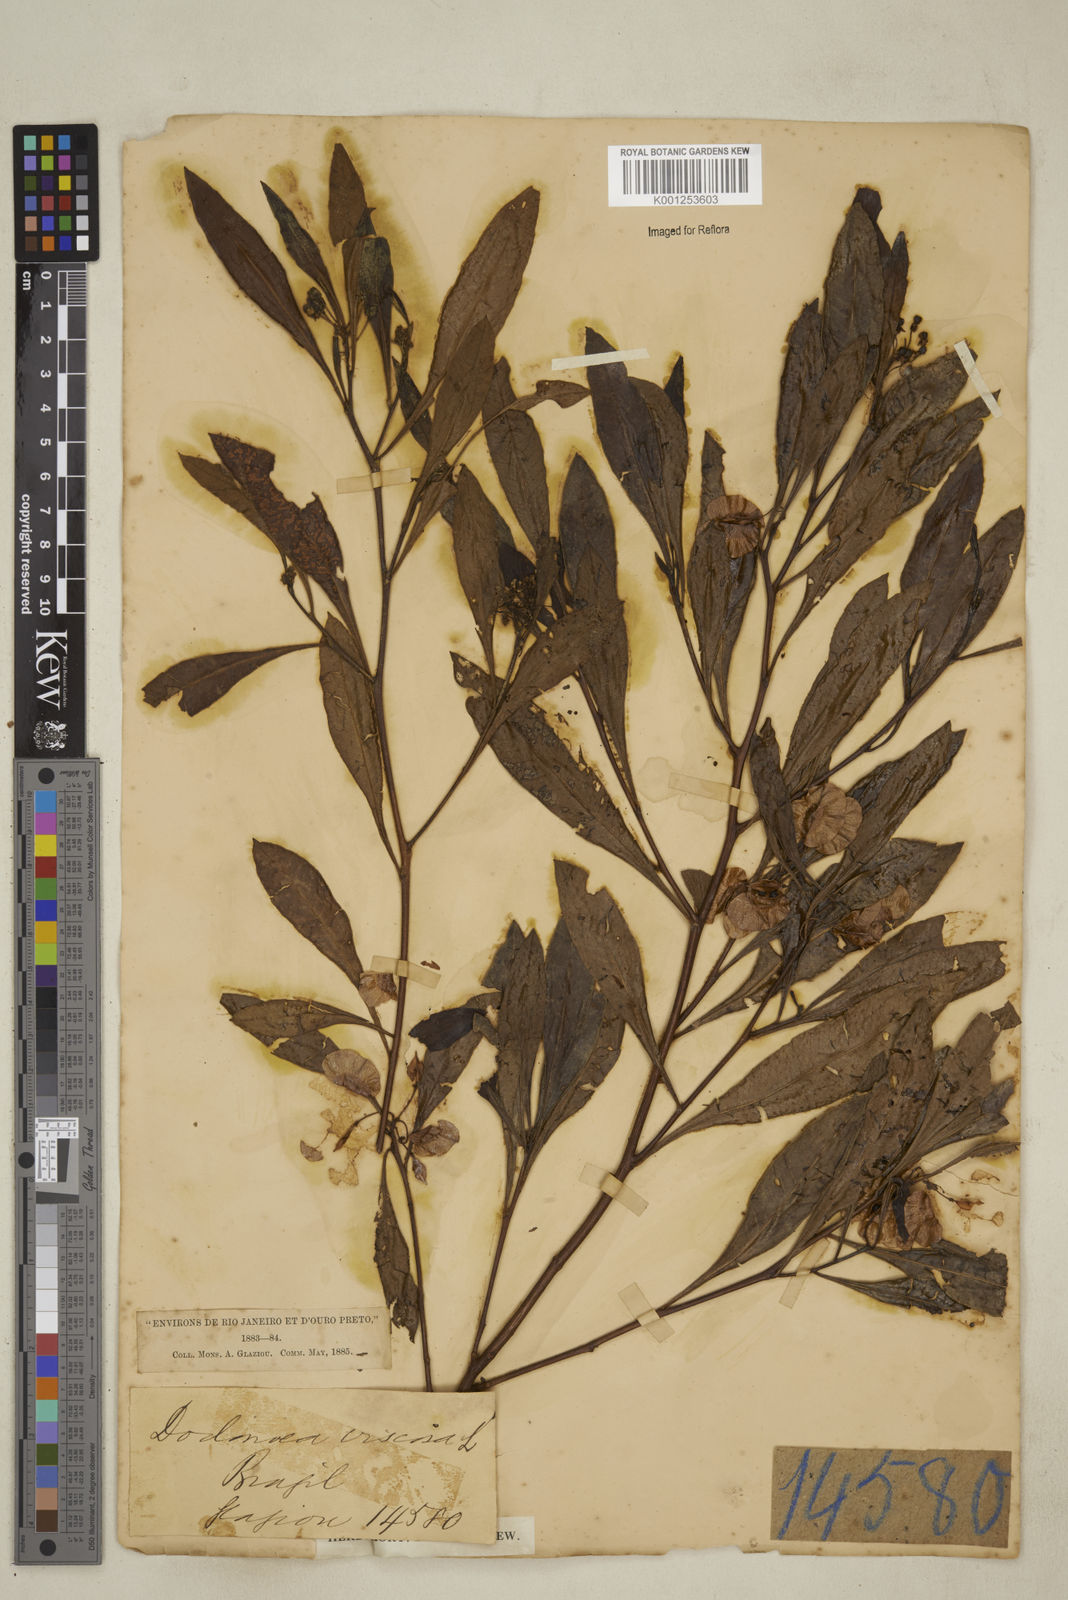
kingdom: Plantae
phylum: Tracheophyta
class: Magnoliopsida
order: Sapindales
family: Sapindaceae
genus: Dodonaea
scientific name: Dodonaea viscosa
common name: Hopbush
